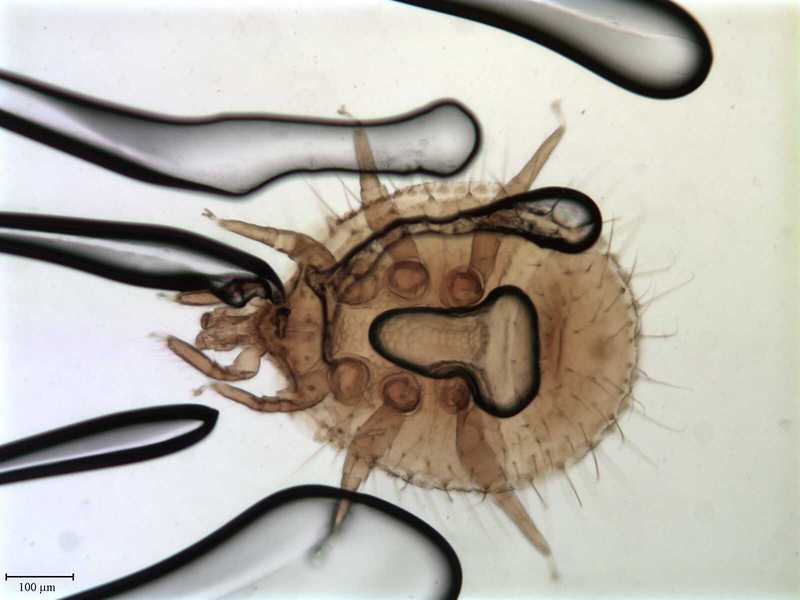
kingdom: Animalia
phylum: Arthropoda
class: Arachnida
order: Mesostigmata
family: Uropodidae
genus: Uropoda
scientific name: Uropoda
